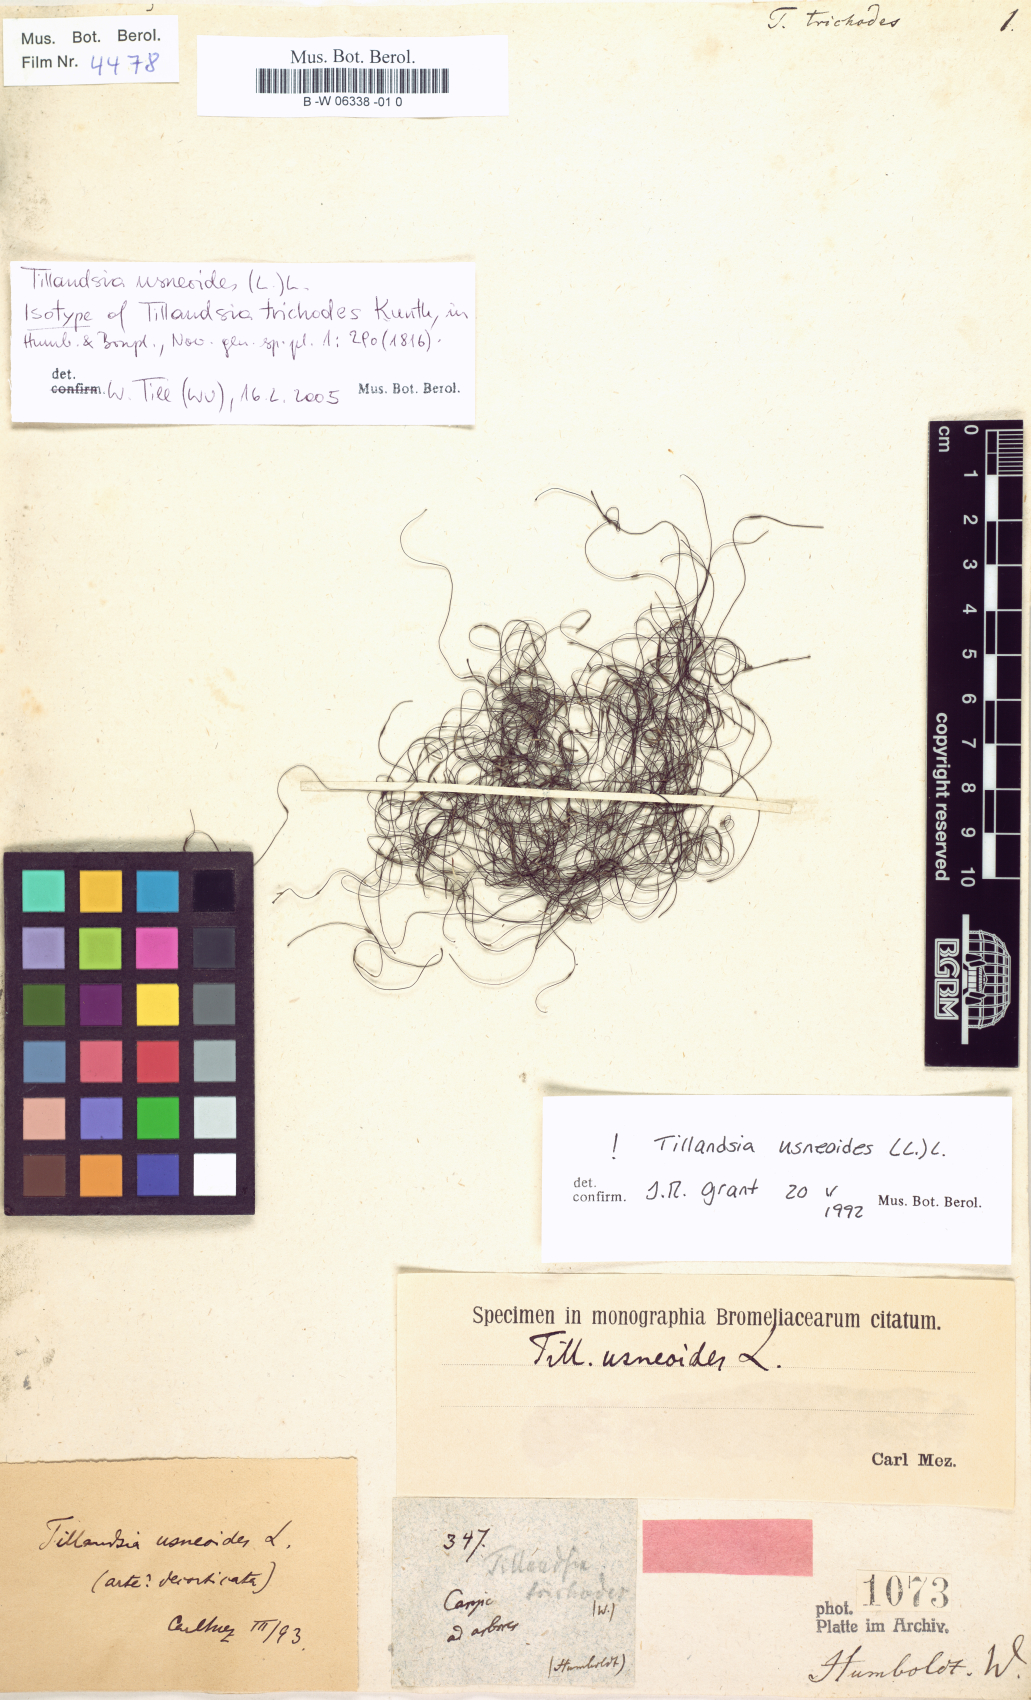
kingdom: Plantae
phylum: Tracheophyta
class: Liliopsida
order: Poales
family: Bromeliaceae
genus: Tillandsia
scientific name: Tillandsia usneoides
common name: Spanish moss
